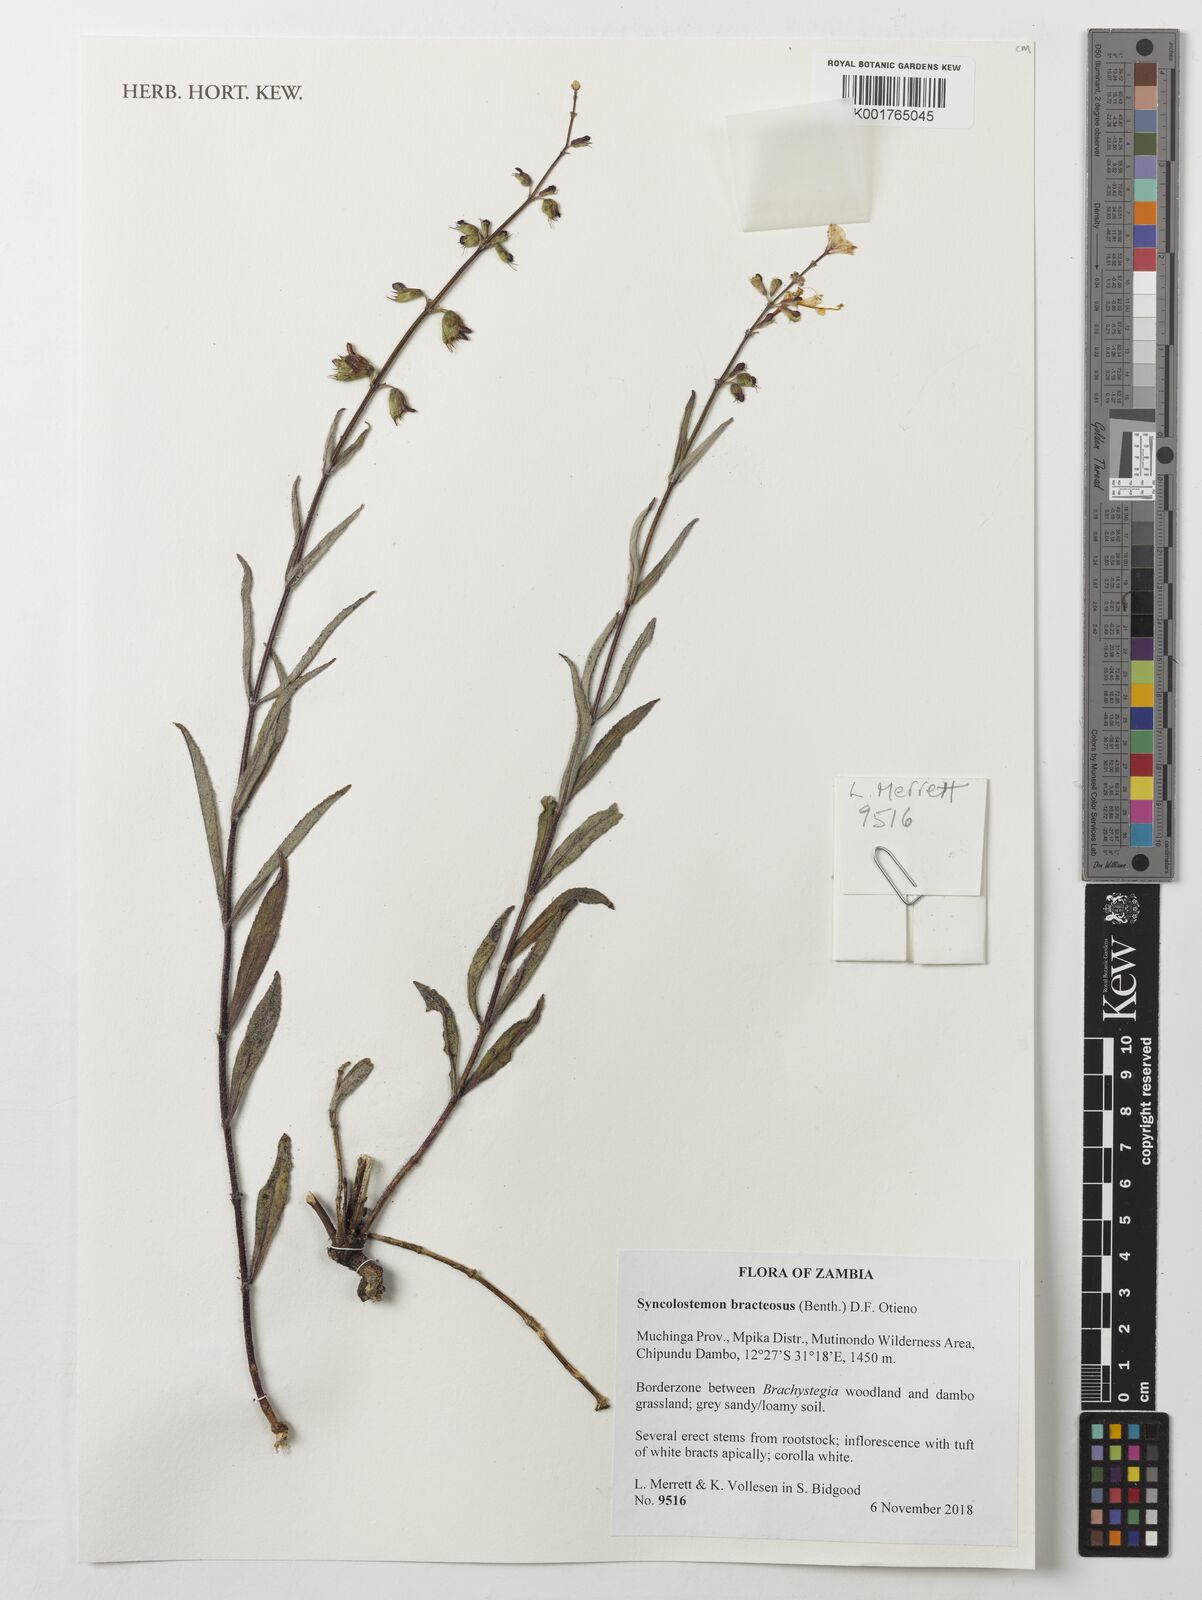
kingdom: Plantae
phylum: Tracheophyta
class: Magnoliopsida
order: Lamiales
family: Lamiaceae
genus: Syncolostemon
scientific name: Syncolostemon bracteosus
